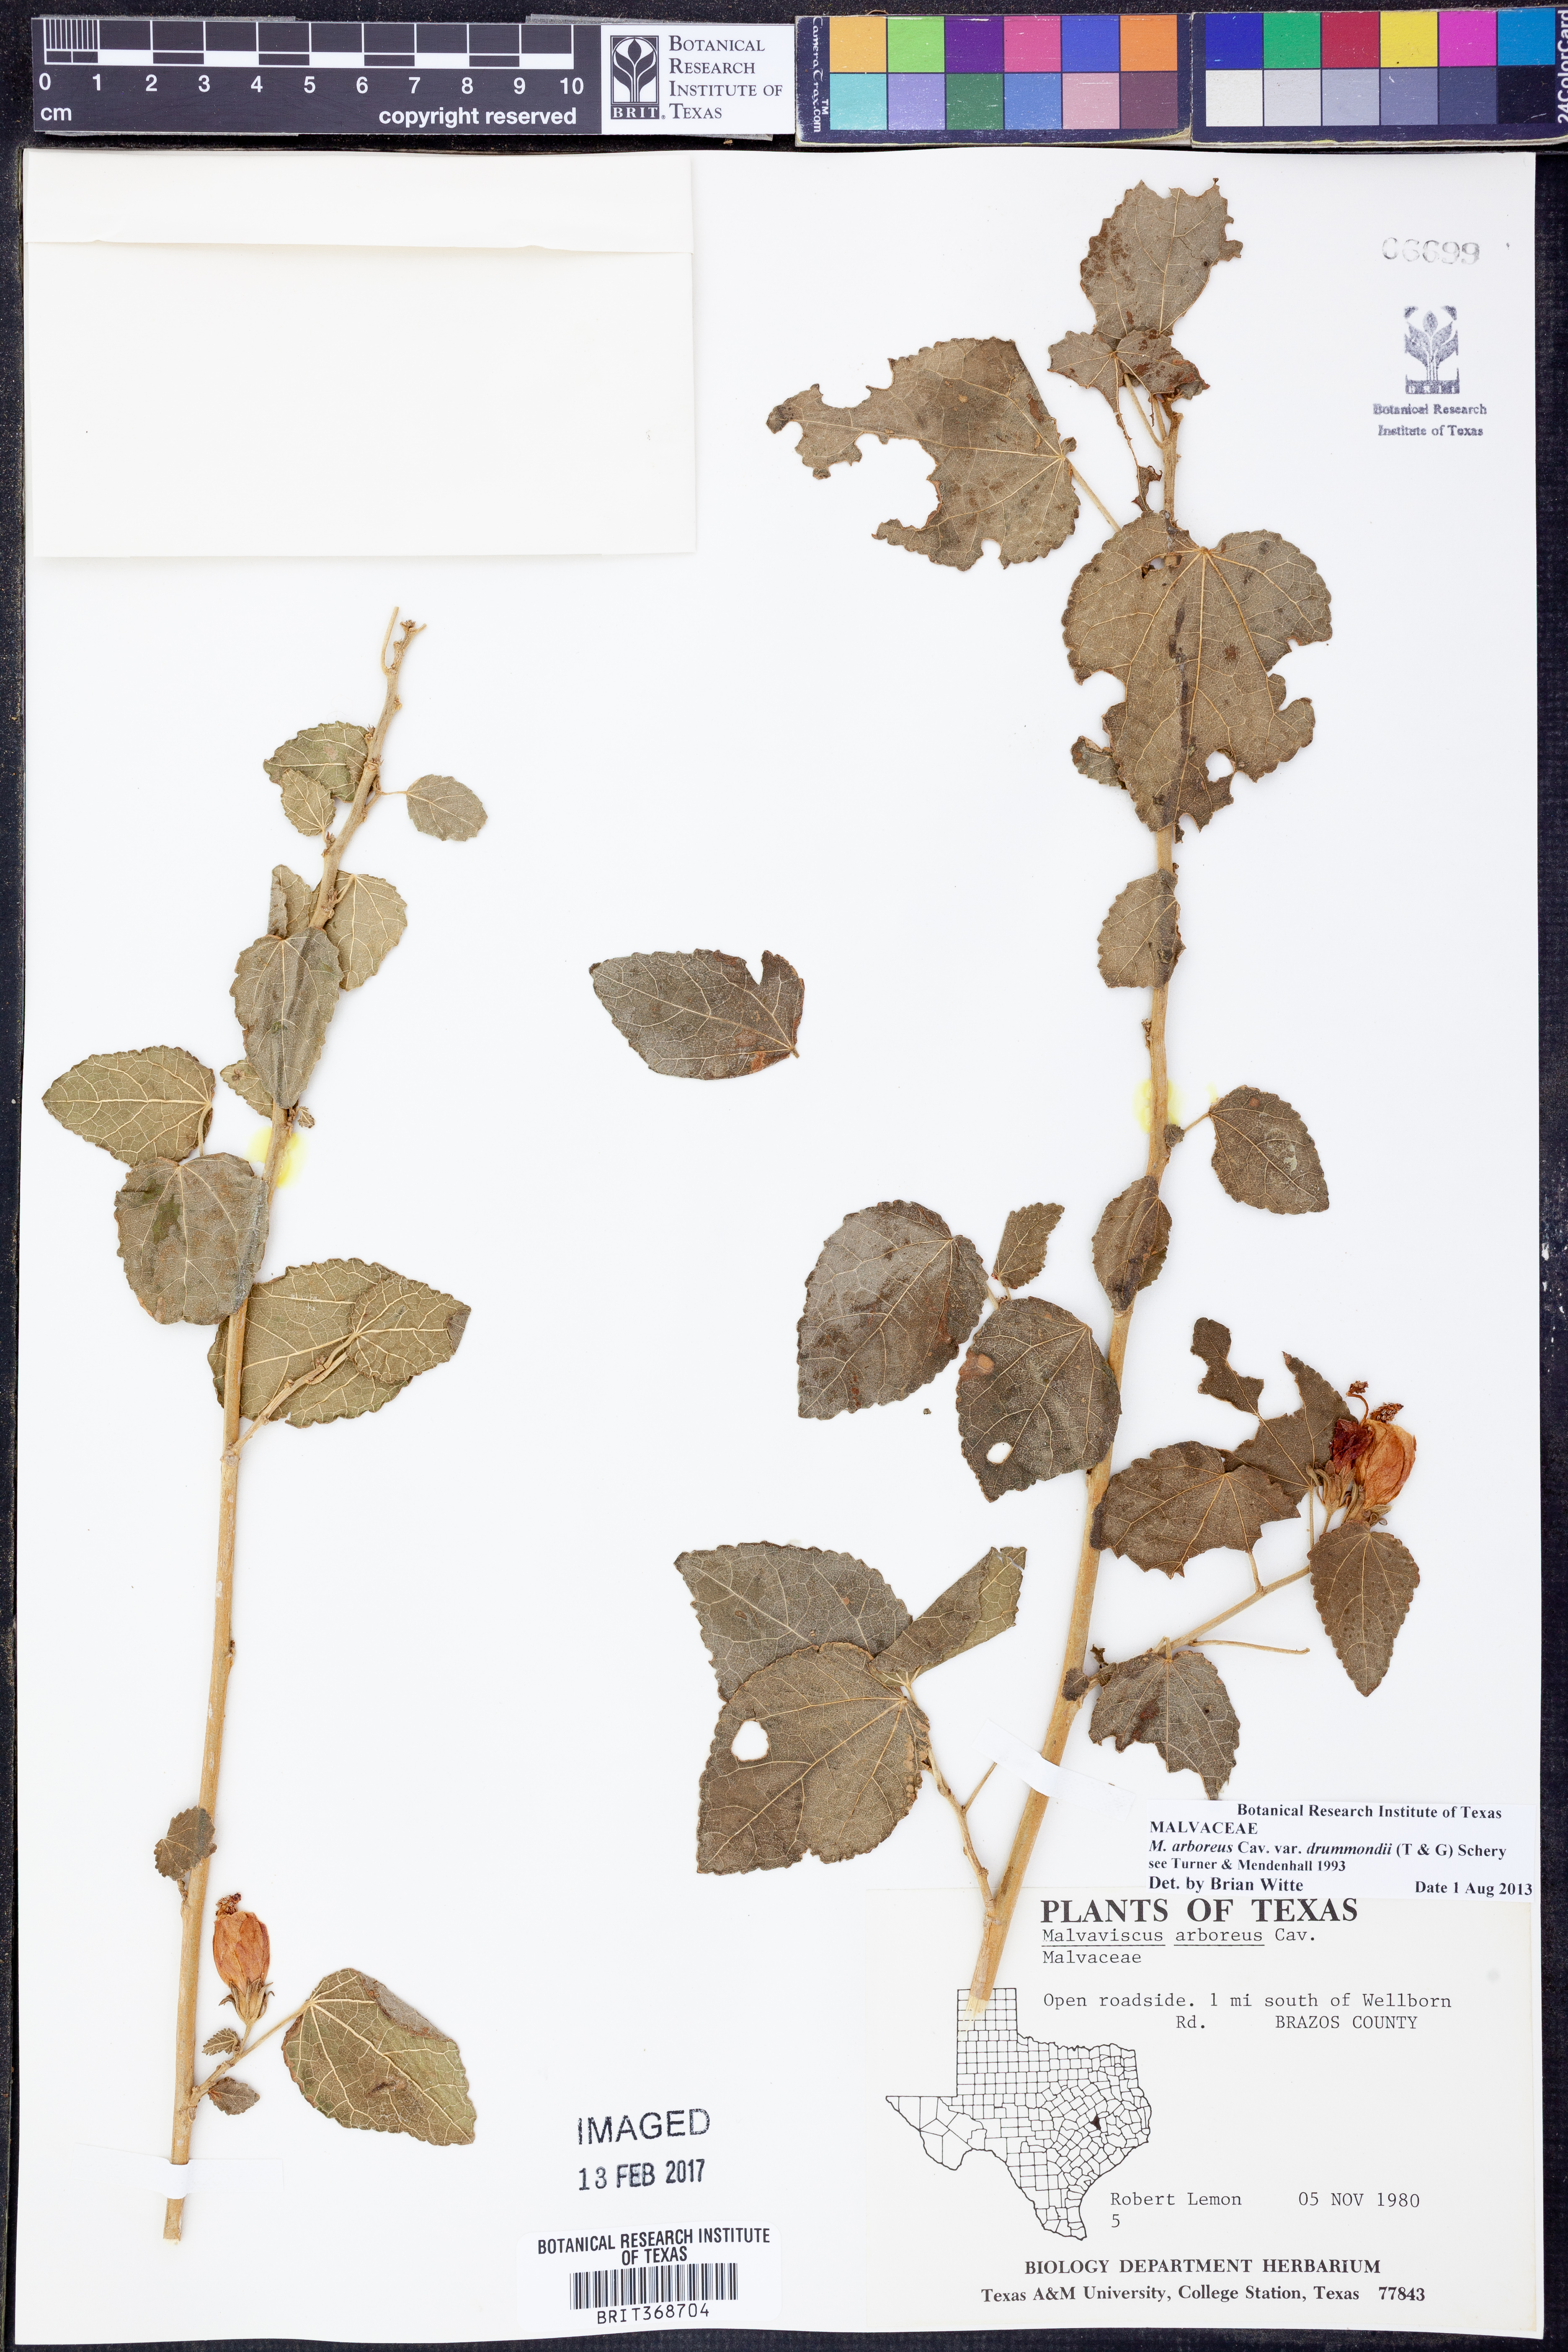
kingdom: Plantae
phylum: Tracheophyta
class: Magnoliopsida
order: Malvales
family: Malvaceae
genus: Malvaviscus
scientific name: Malvaviscus arboreus
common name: Wax mallow
